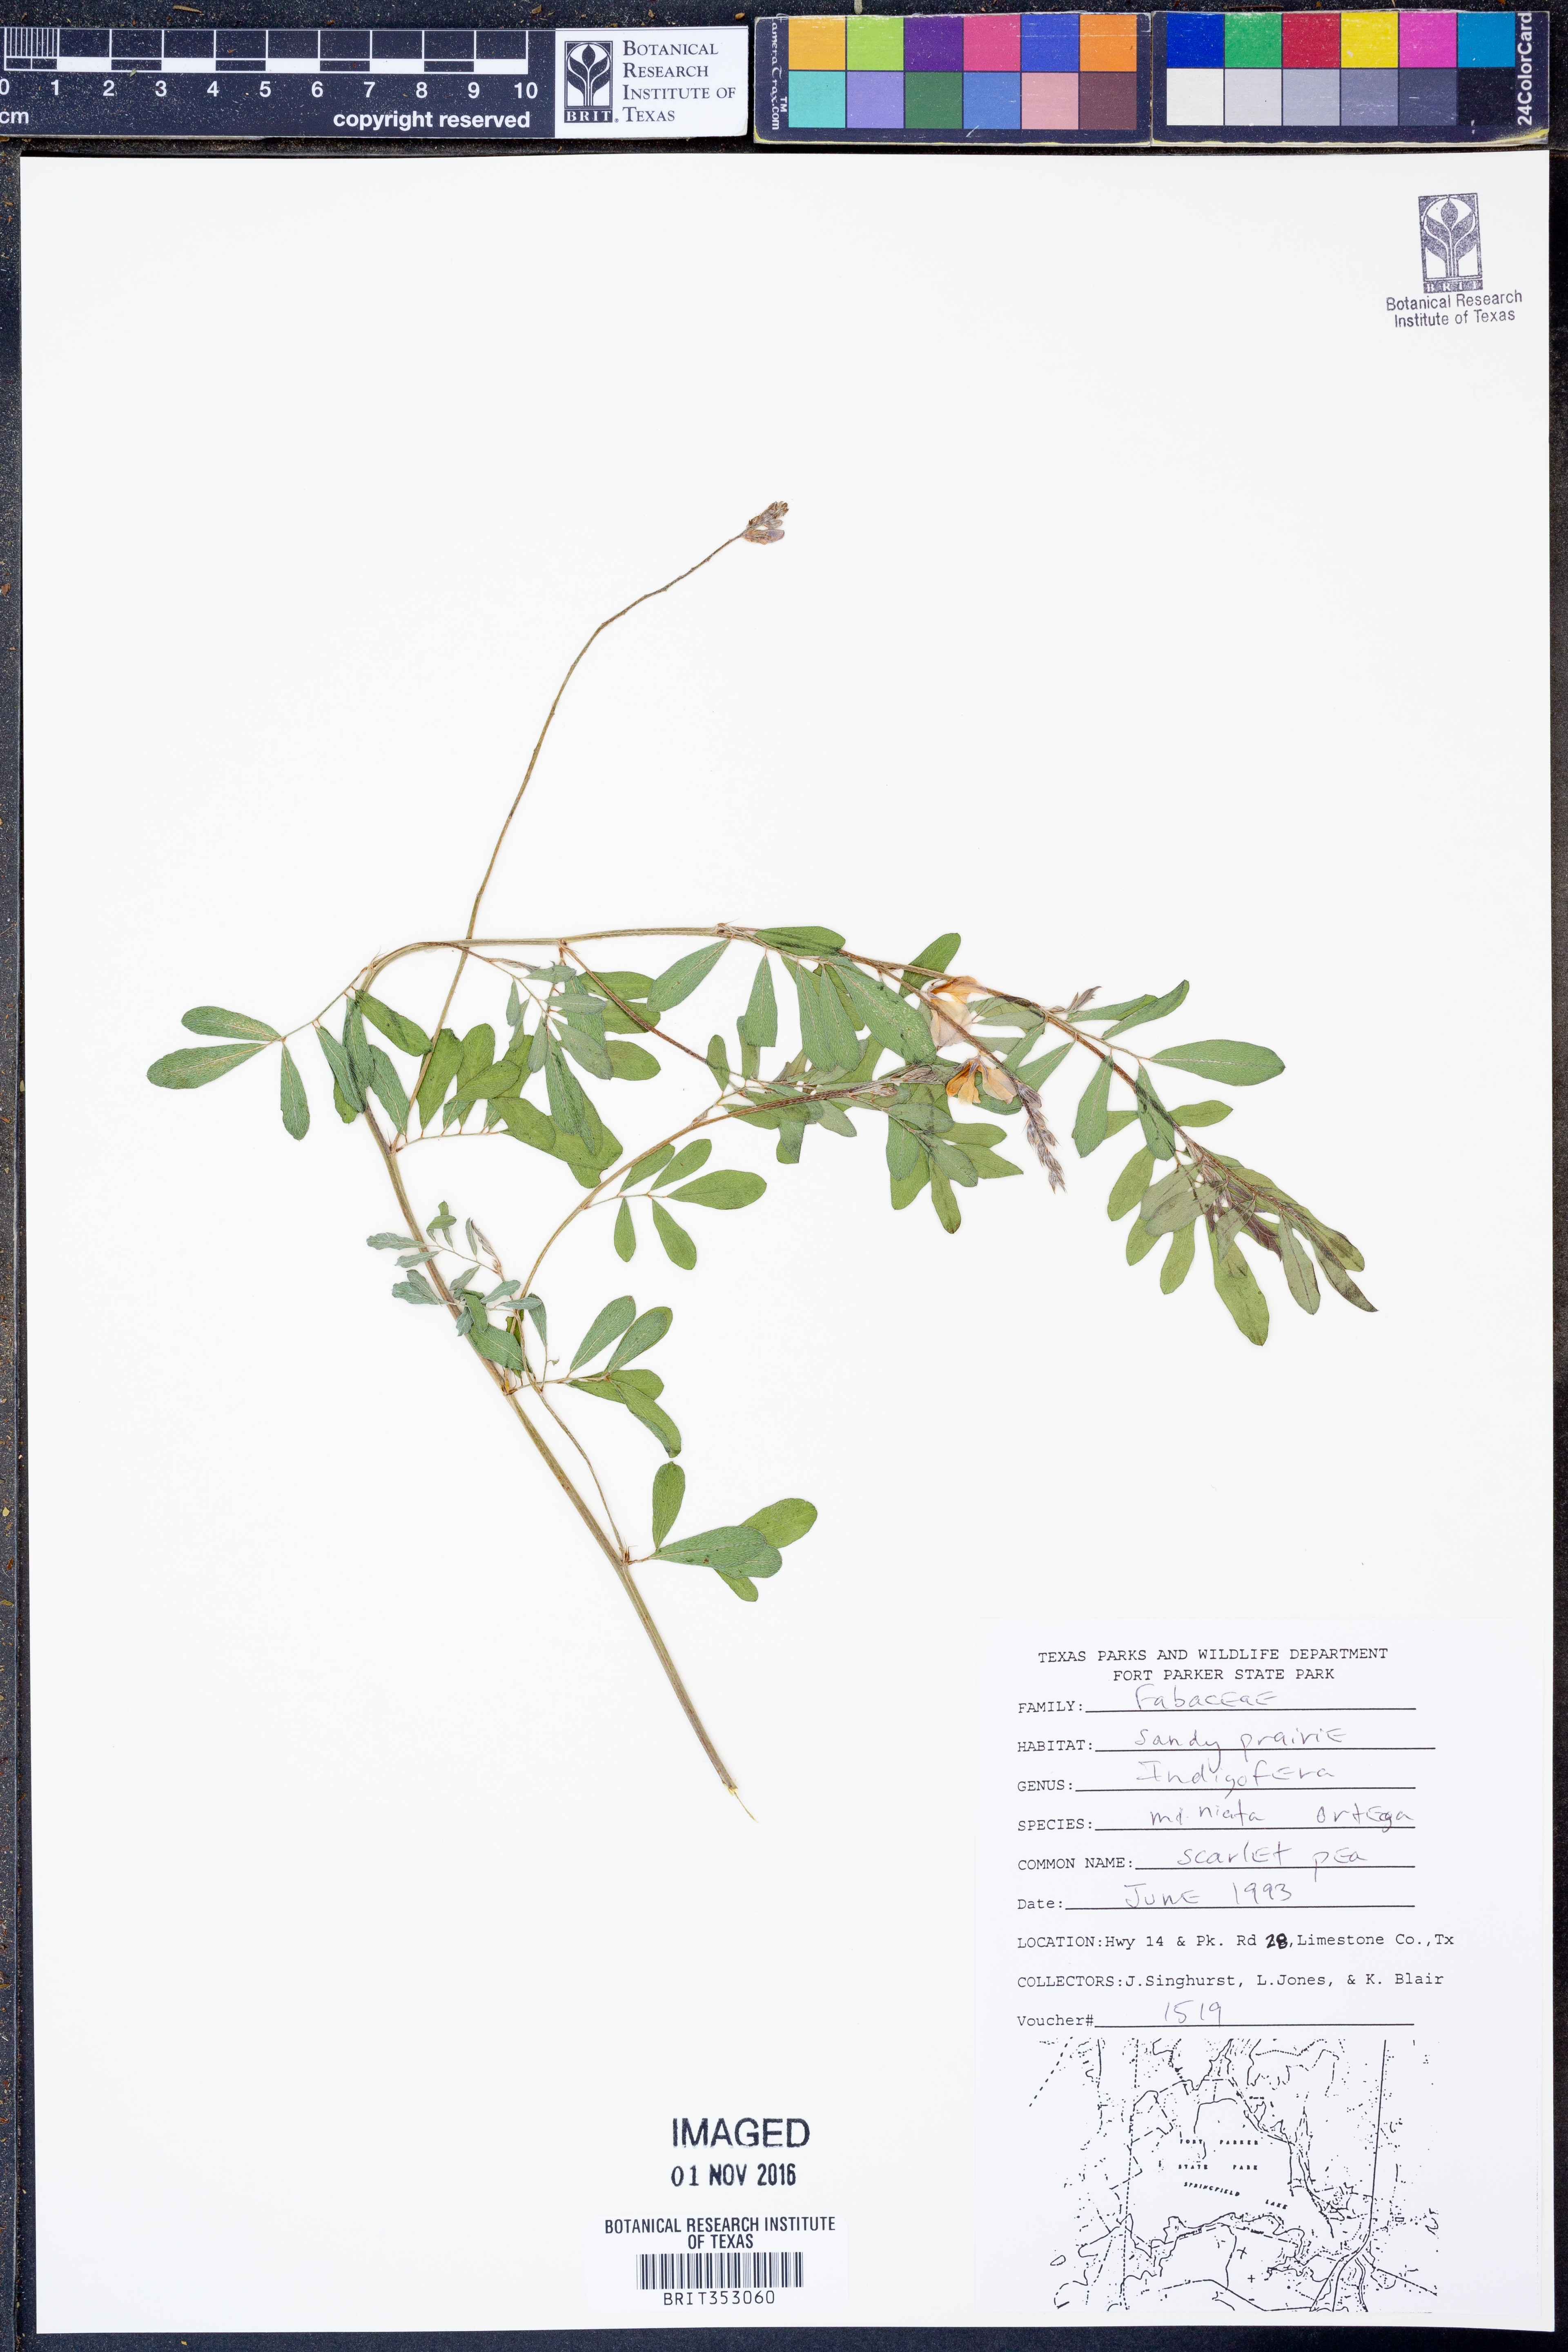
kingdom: Plantae
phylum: Tracheophyta
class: Magnoliopsida
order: Fabales
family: Fabaceae
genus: Indigofera
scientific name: Indigofera miniata
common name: Coast indigo
